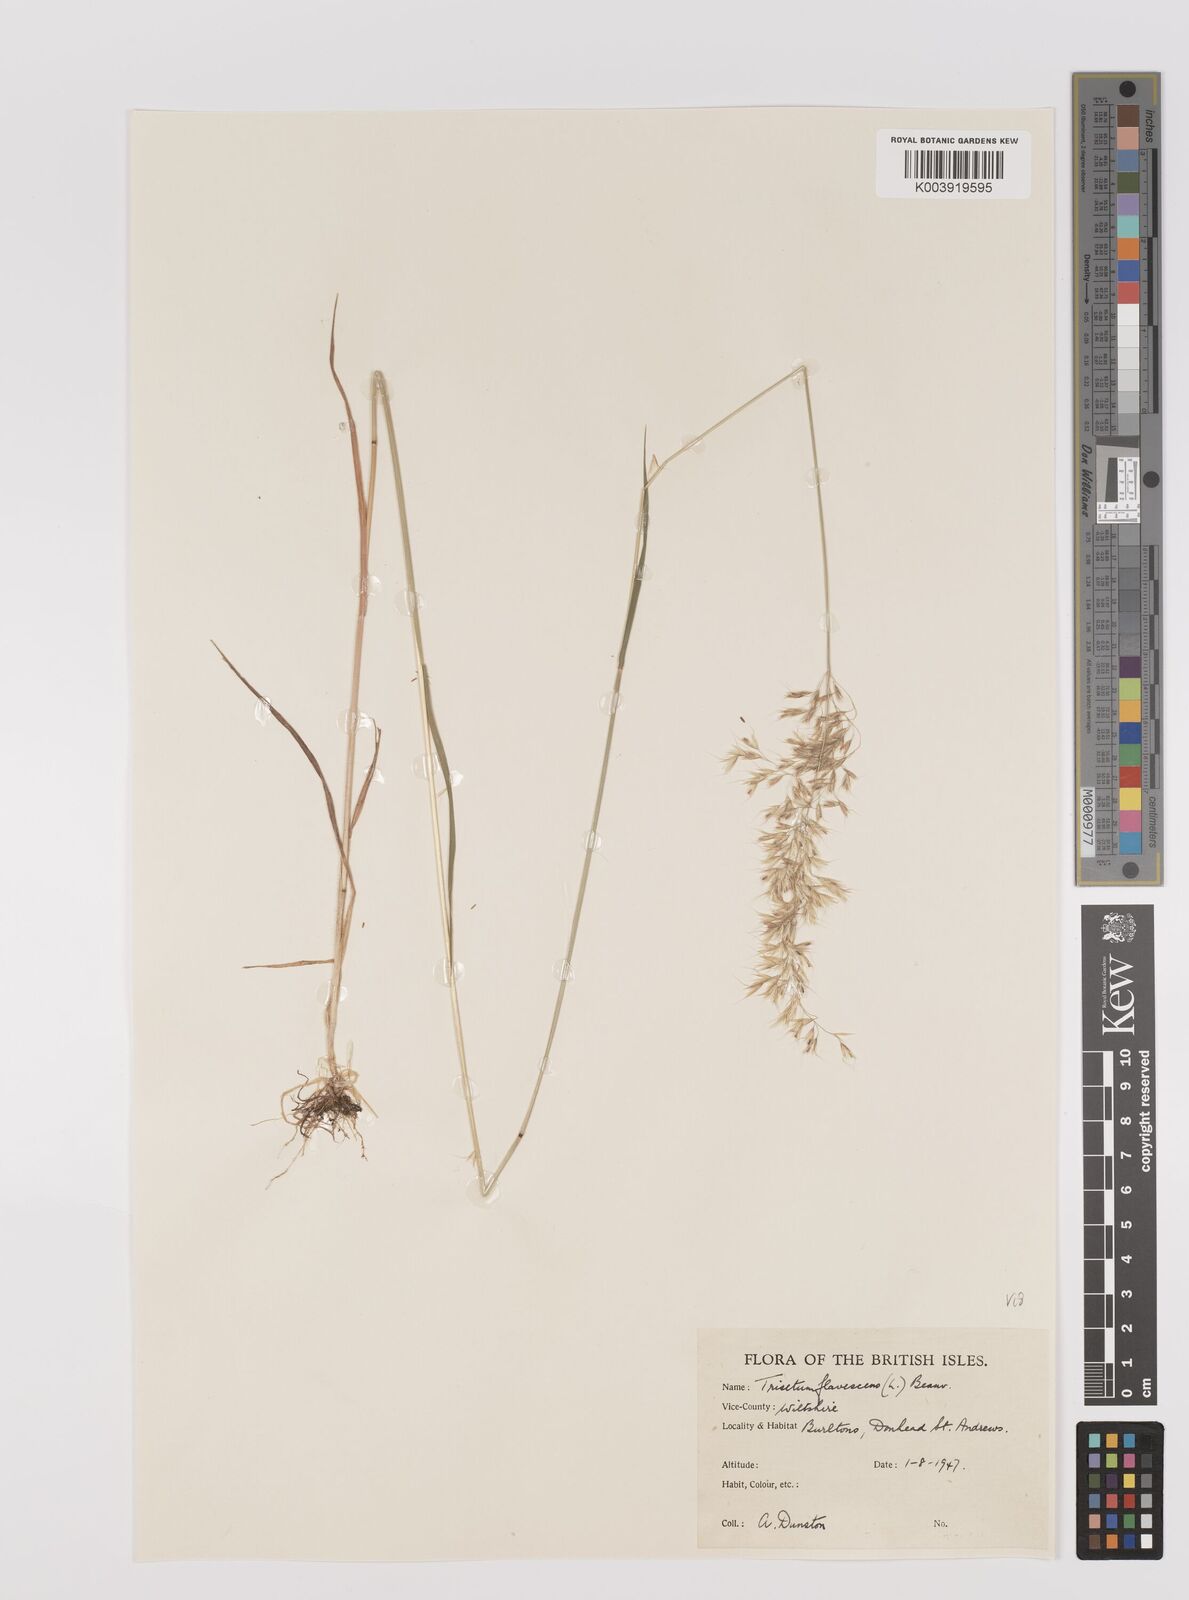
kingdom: Plantae
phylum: Tracheophyta
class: Liliopsida
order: Poales
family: Poaceae
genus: Trisetum
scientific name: Trisetum flavescens
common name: Yellow oat-grass
